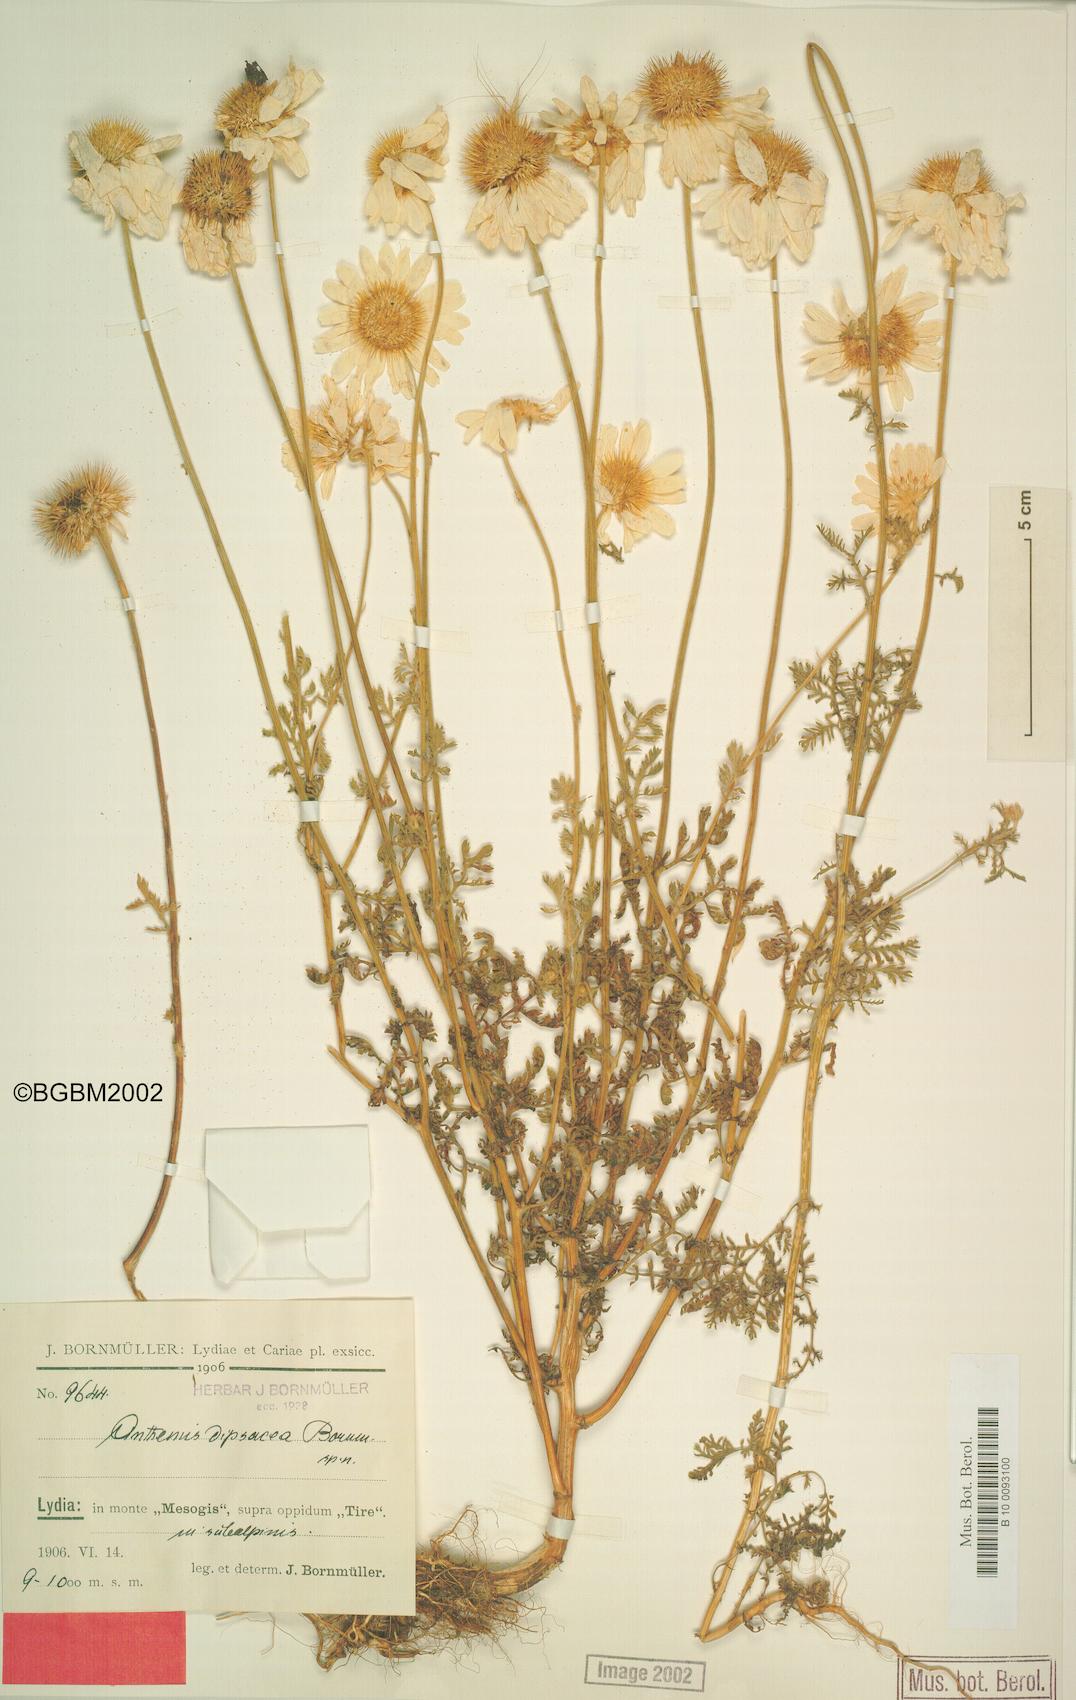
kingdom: Plantae
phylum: Tracheophyta
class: Magnoliopsida
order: Asterales
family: Asteraceae
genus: Cota
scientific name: Cota dipsacea
